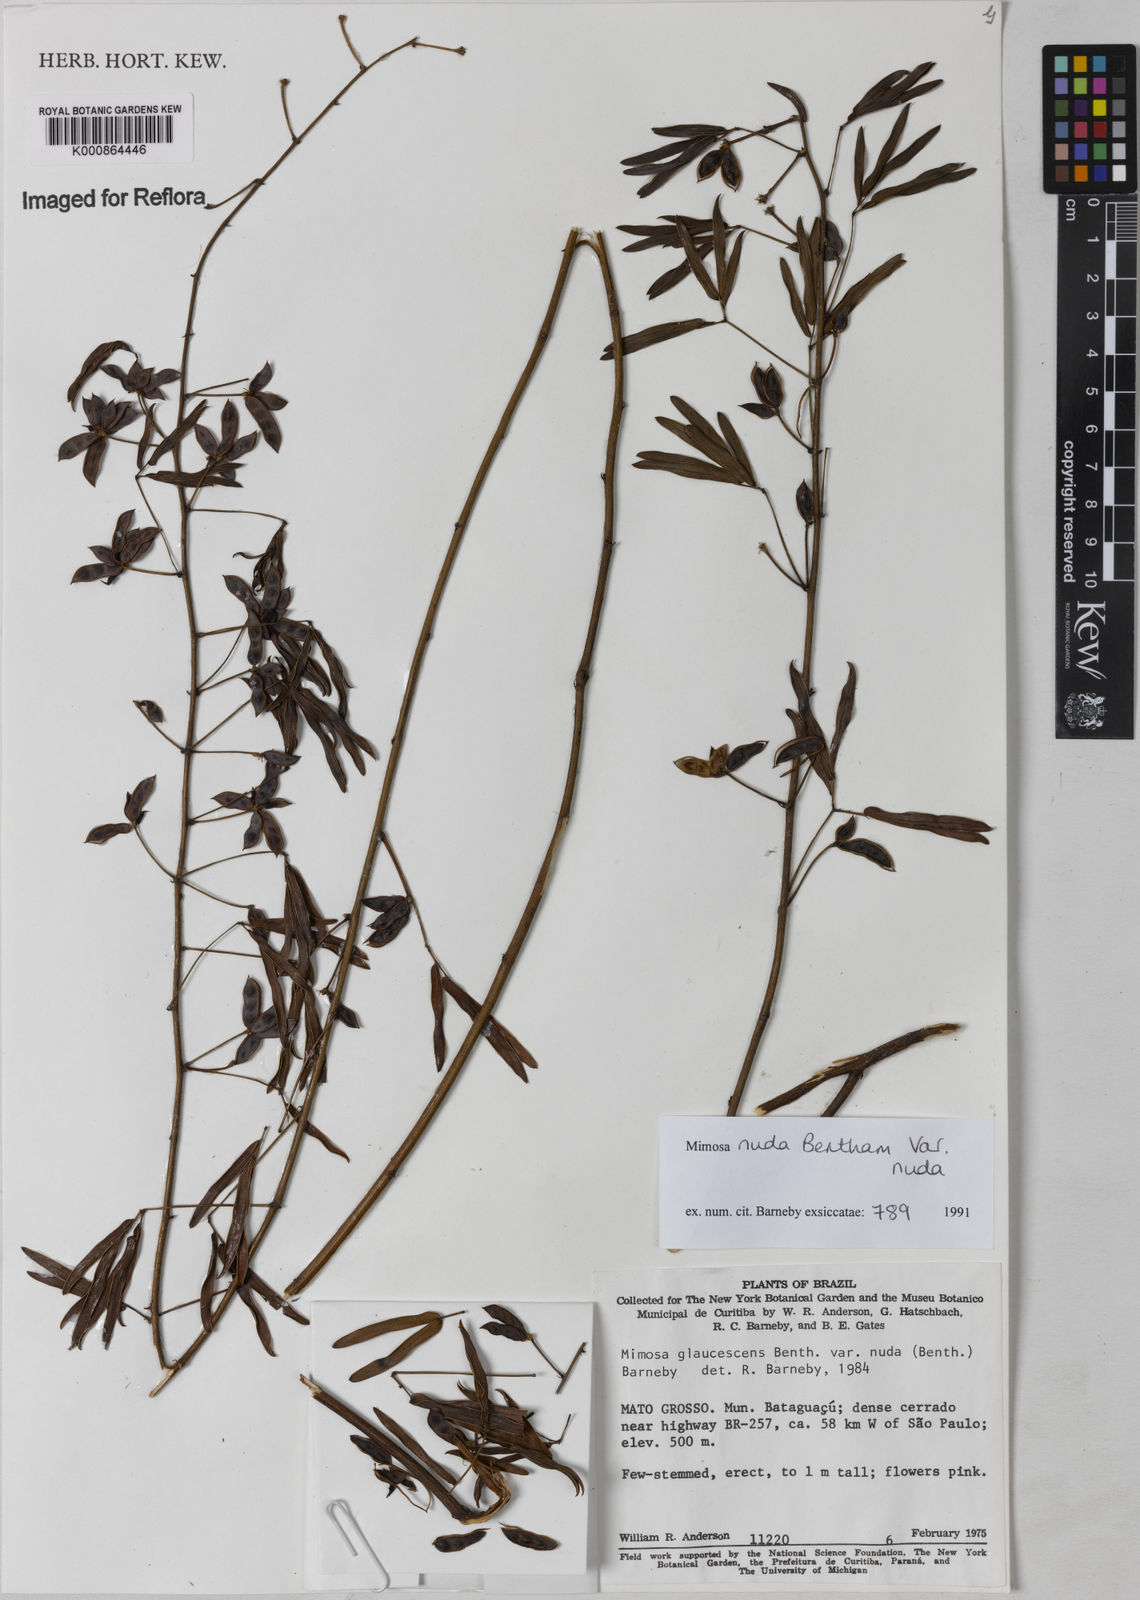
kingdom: Plantae
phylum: Tracheophyta
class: Magnoliopsida
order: Fabales
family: Fabaceae
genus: Mimosa
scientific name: Mimosa debilis
